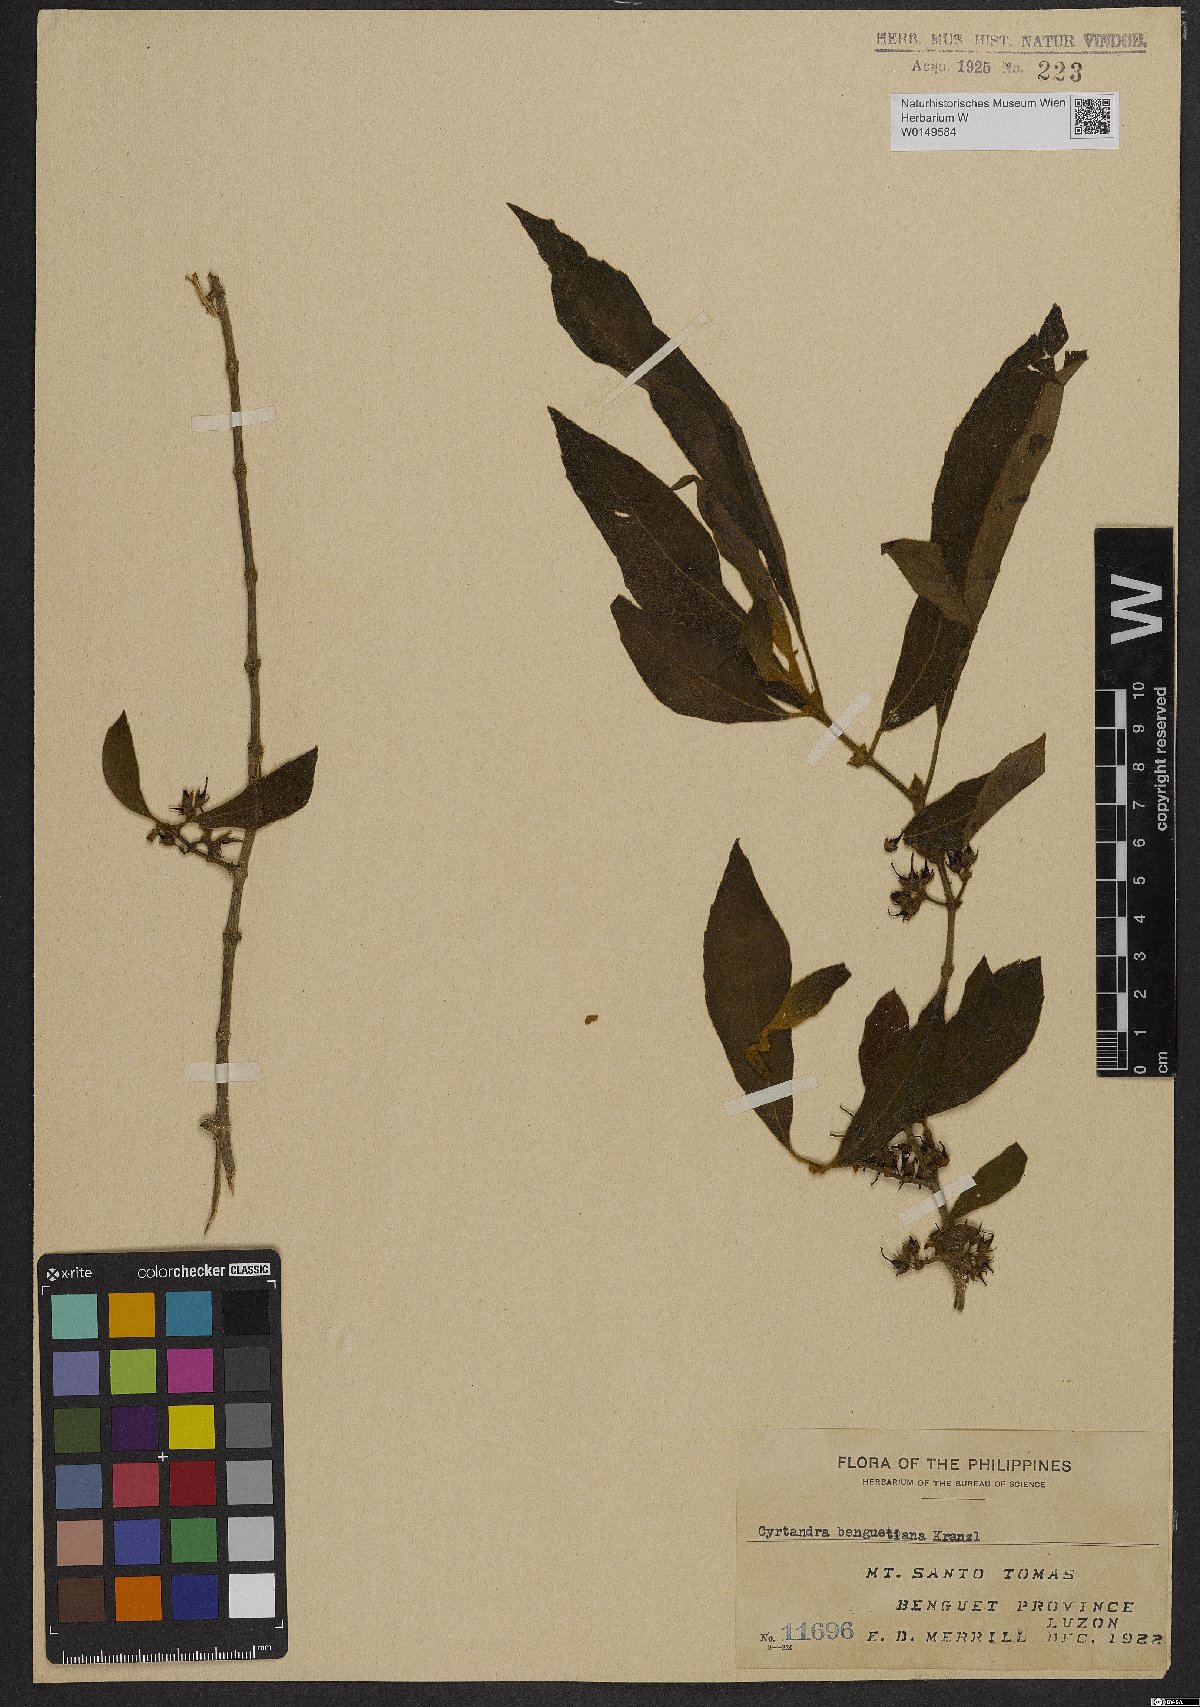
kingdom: Plantae
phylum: Tracheophyta
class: Magnoliopsida
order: Lamiales
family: Gesneriaceae
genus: Cyrtandra
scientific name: Cyrtandra benguetiana
